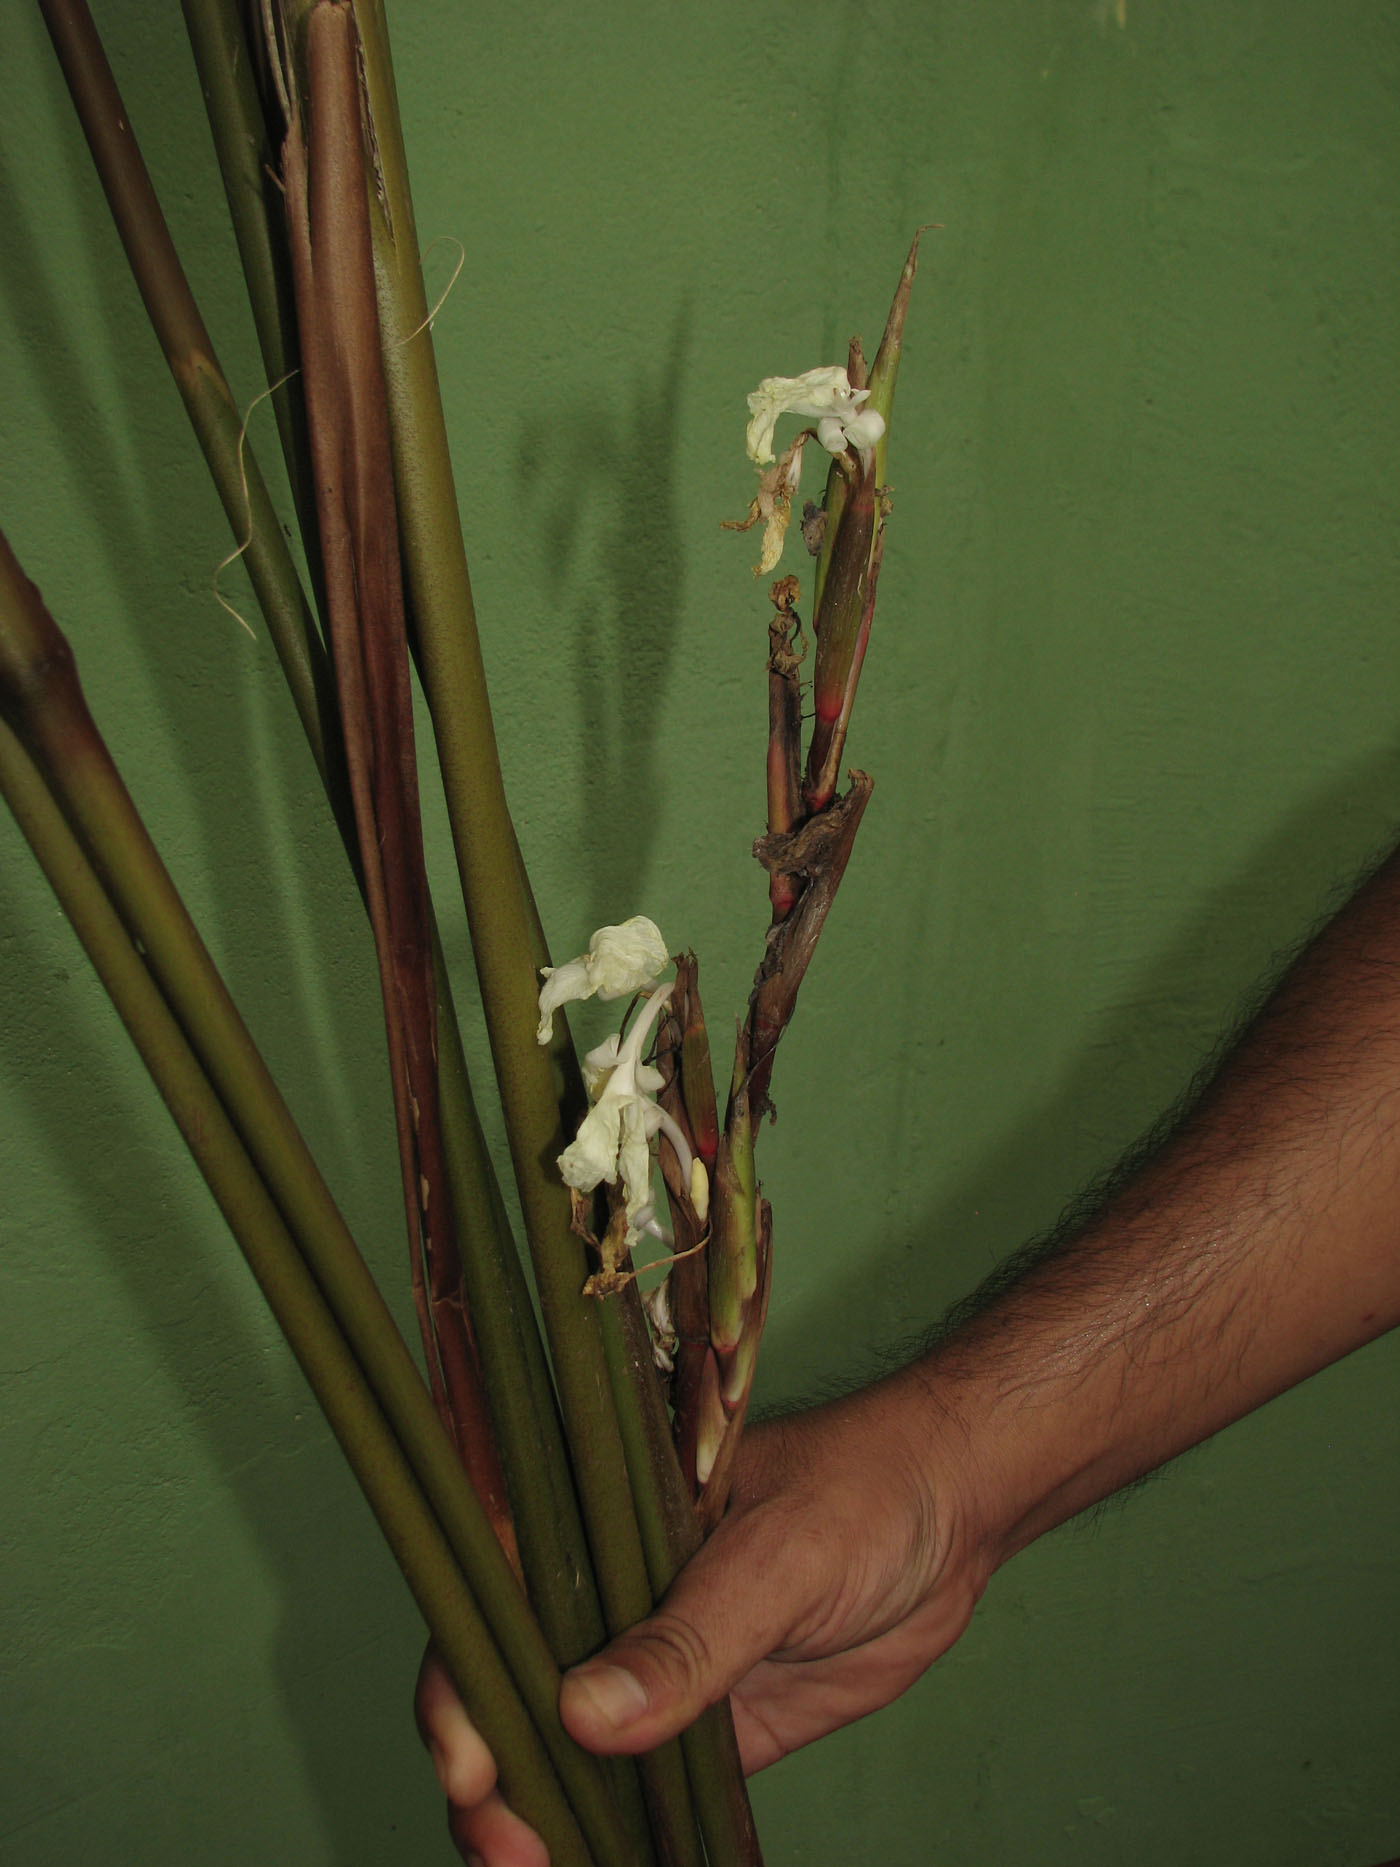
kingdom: Plantae
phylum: Tracheophyta
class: Liliopsida
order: Zingiberales
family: Marantaceae
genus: Phrynium
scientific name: Phrynium rubrum
